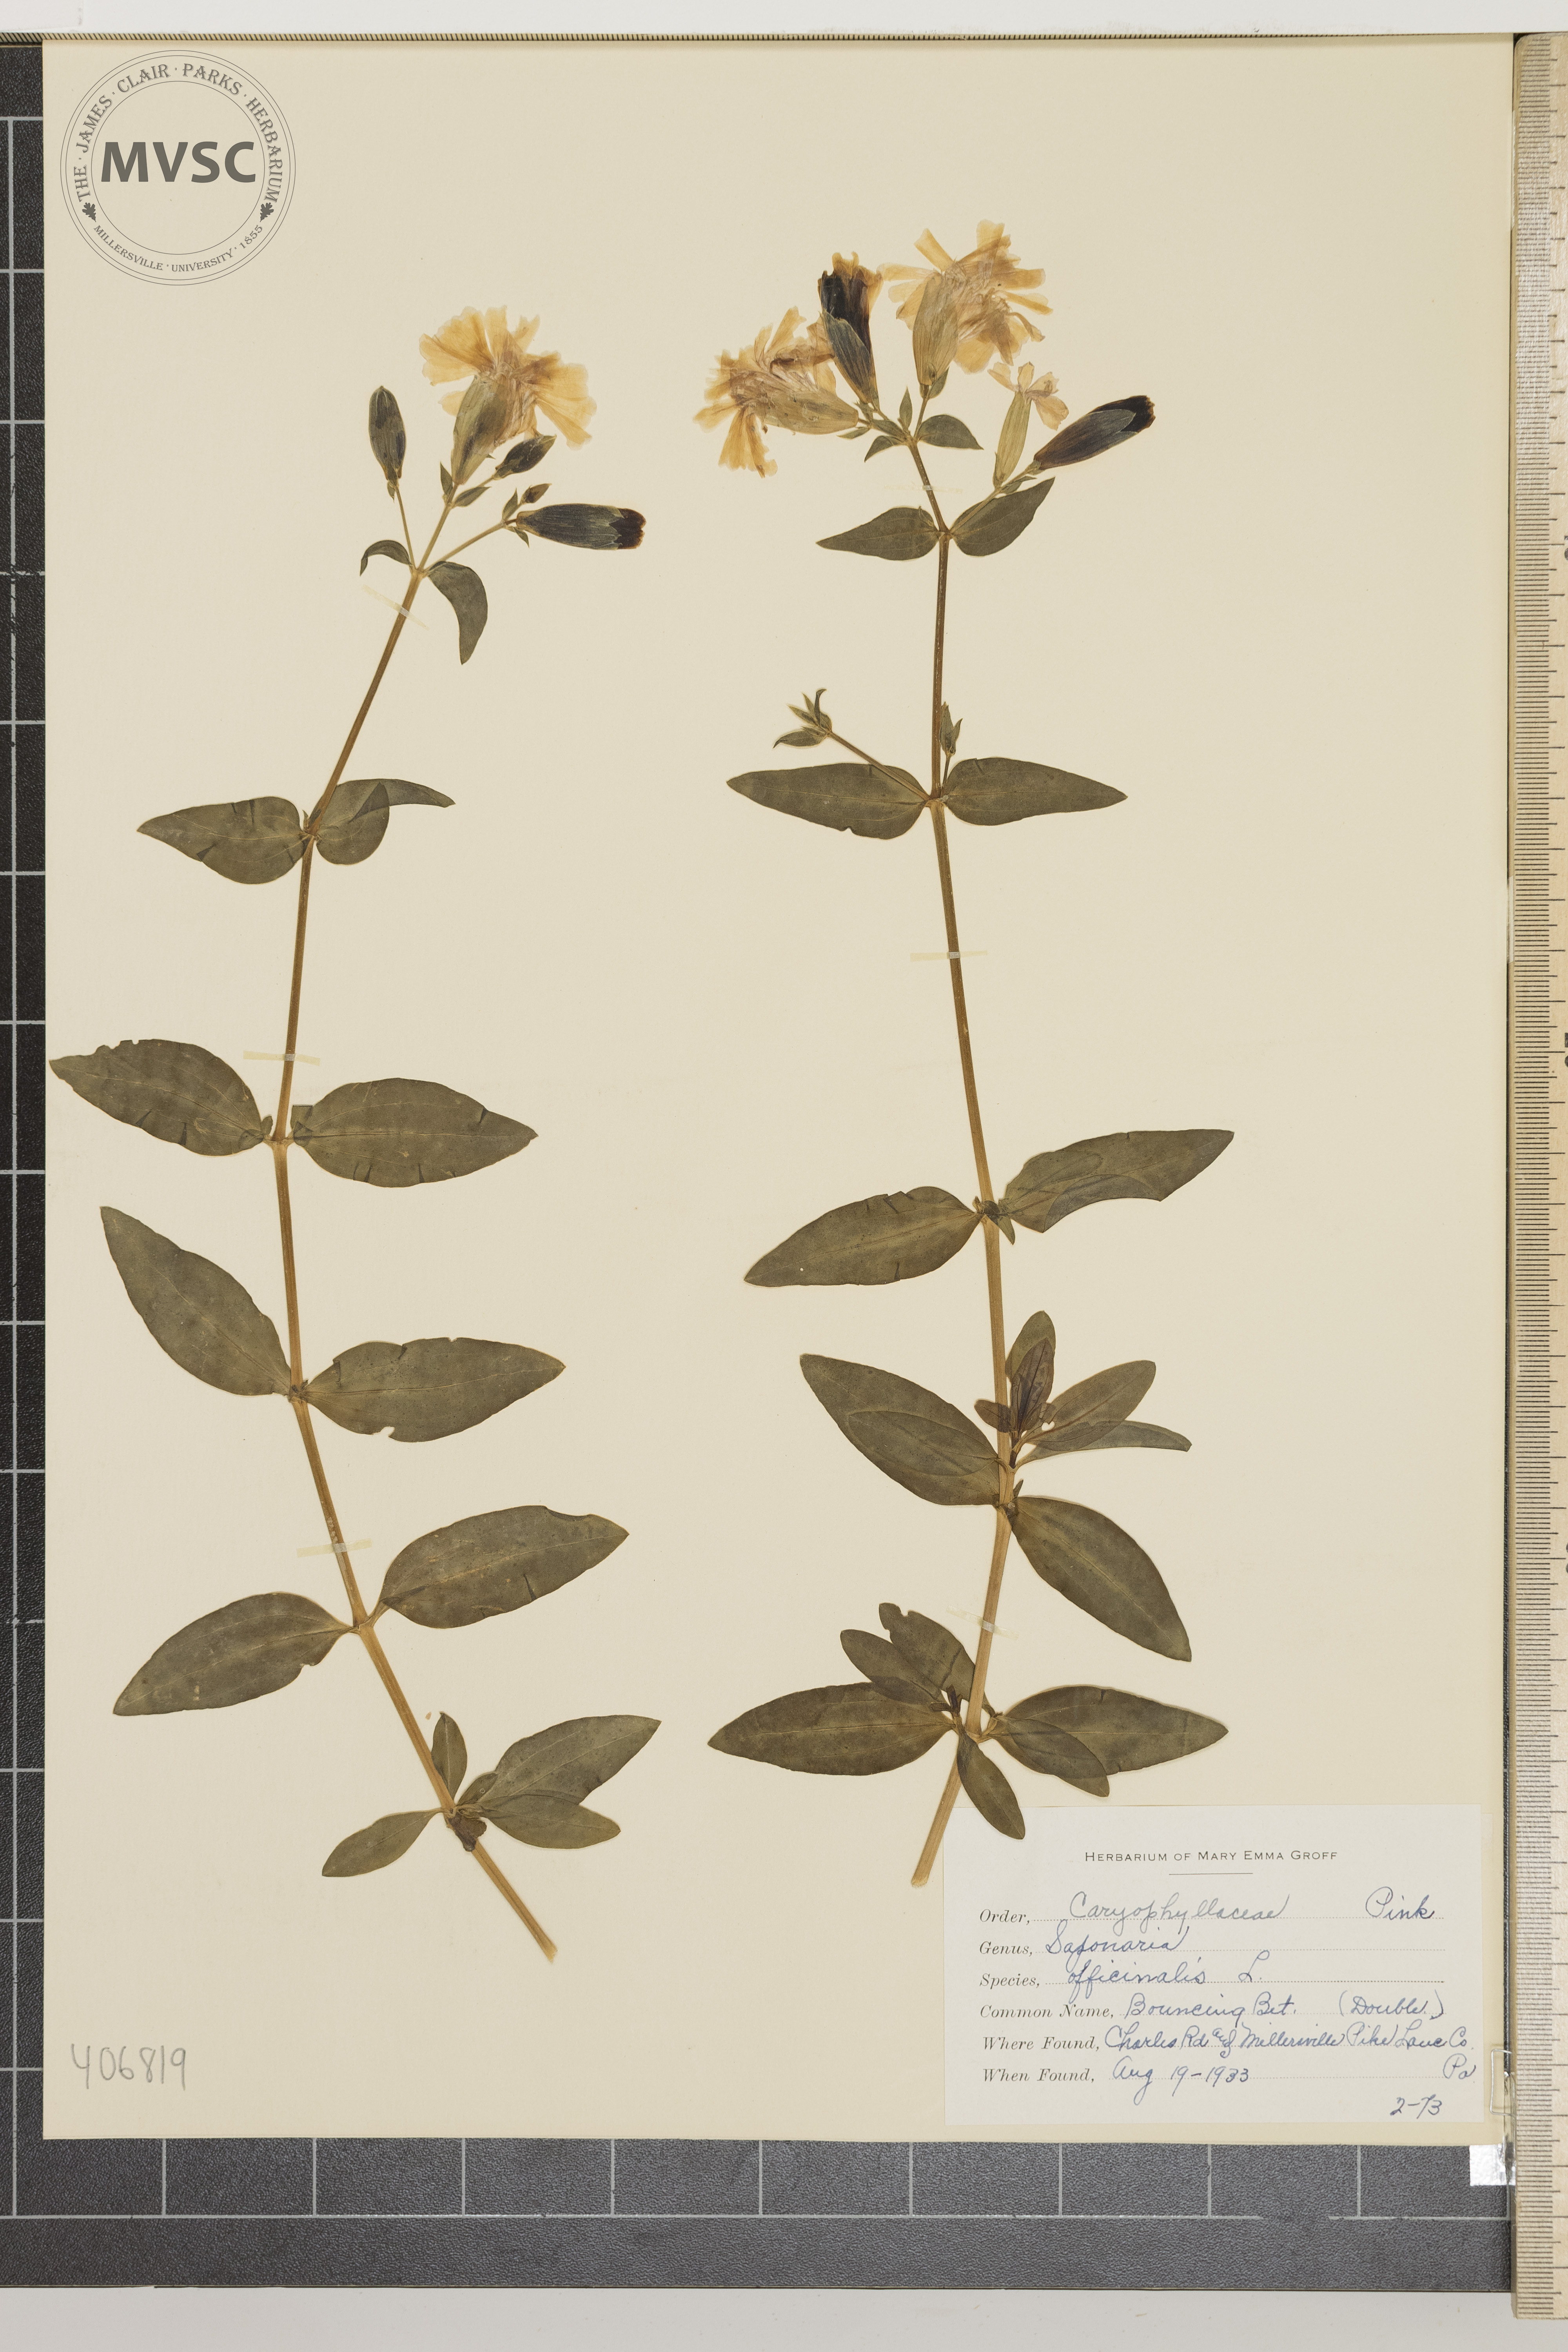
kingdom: Plantae
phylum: Tracheophyta
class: Magnoliopsida
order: Caryophyllales
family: Caryophyllaceae
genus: Saponaria
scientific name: Saponaria officinalis
